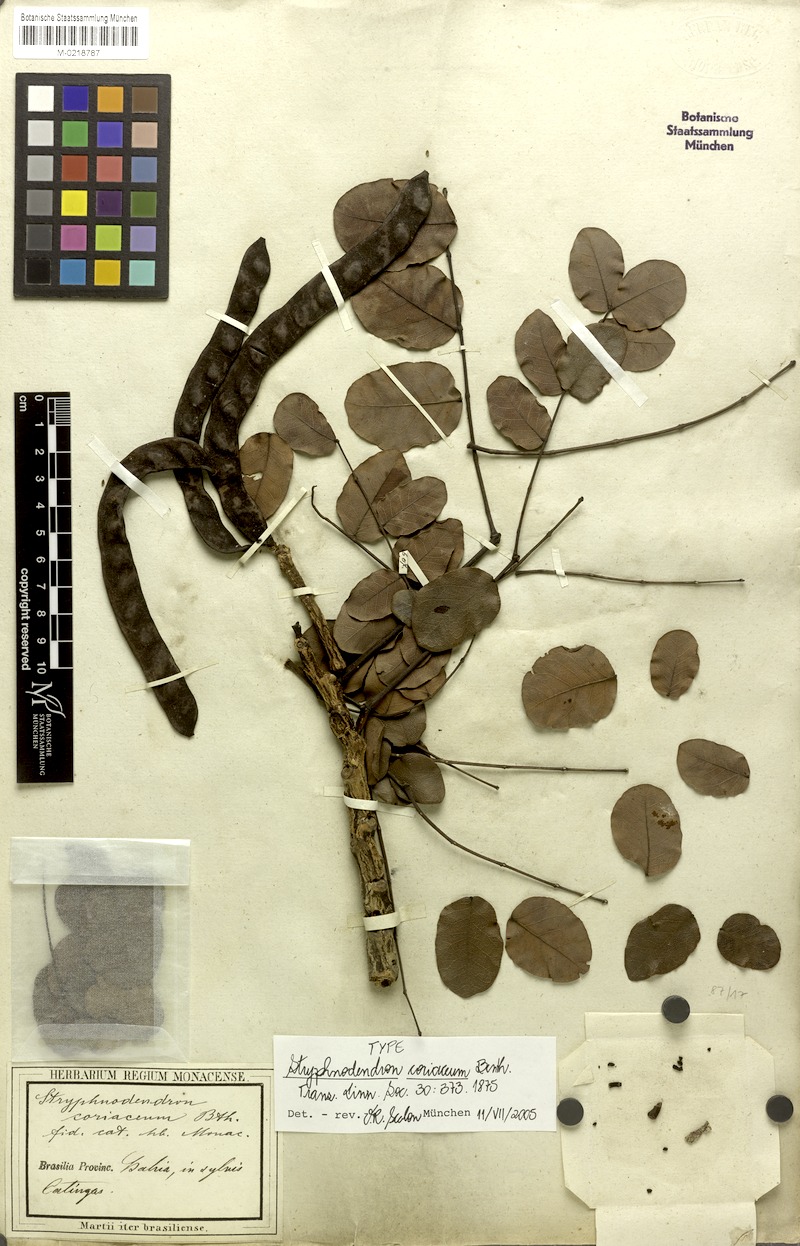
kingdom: Plantae
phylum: Tracheophyta
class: Magnoliopsida
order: Fabales
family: Fabaceae
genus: Stryphnodendron
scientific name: Stryphnodendron coriaceum
